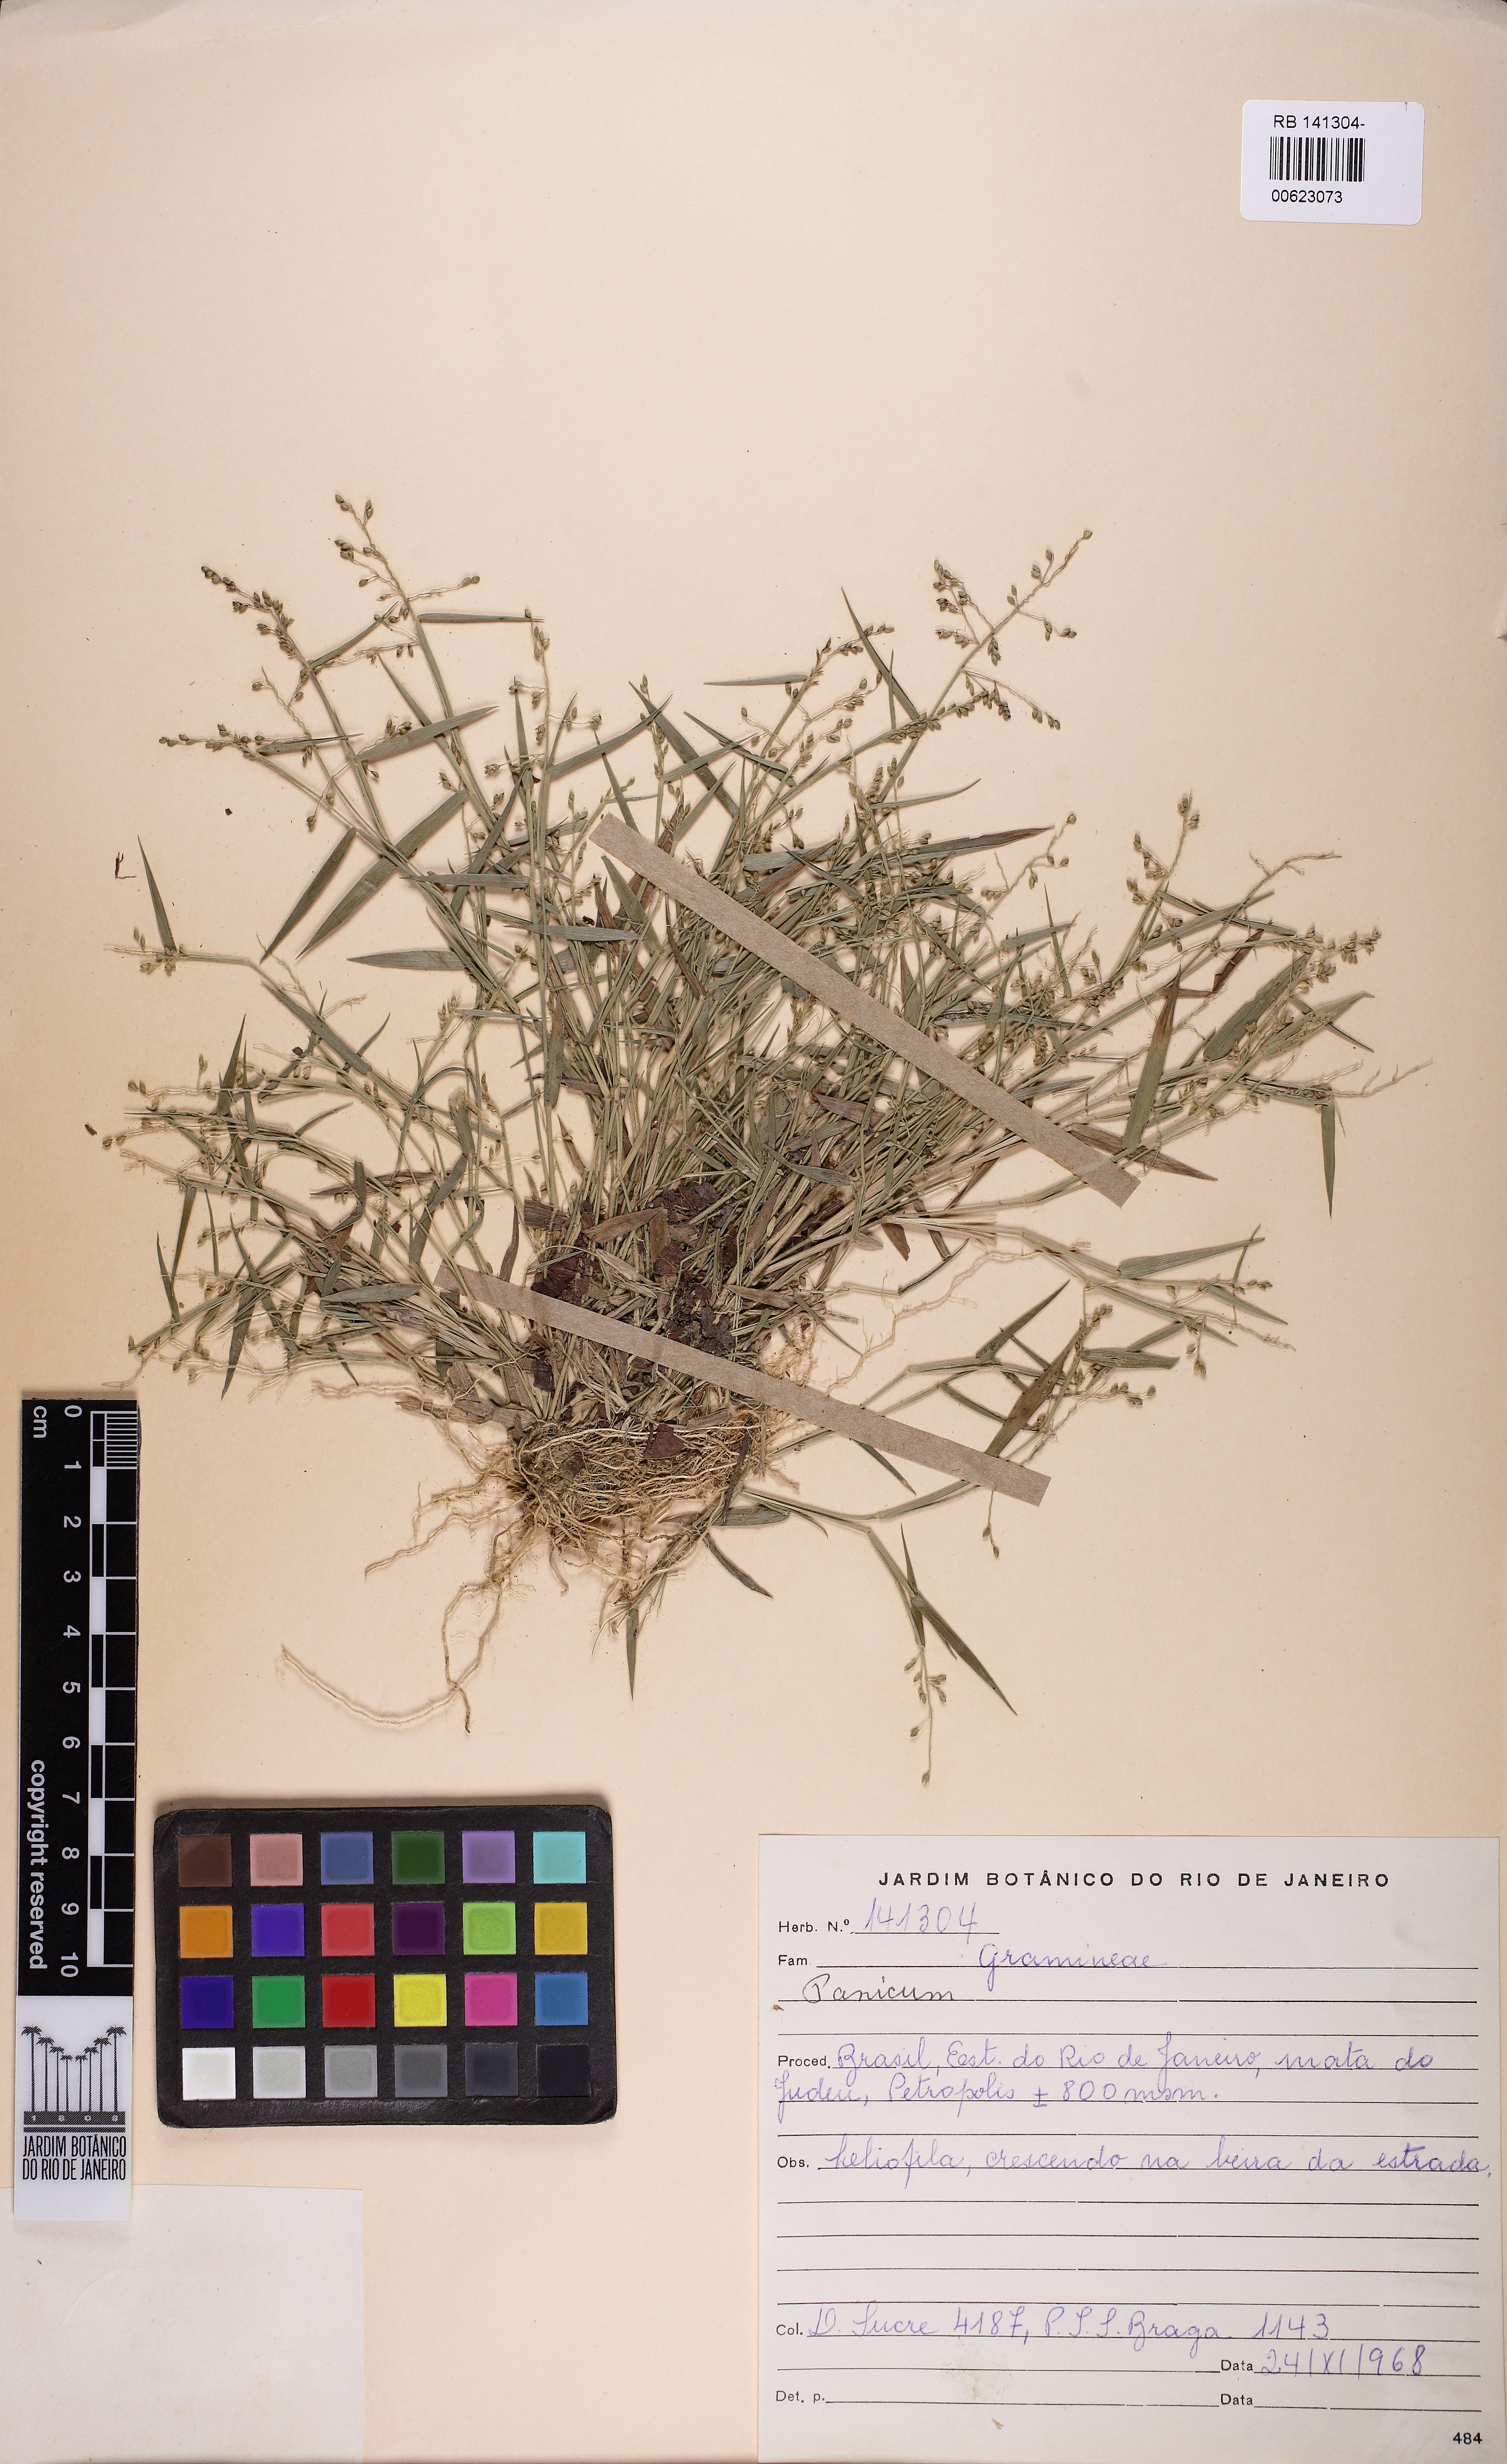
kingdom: Plantae
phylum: Tracheophyta
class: Liliopsida
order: Poales
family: Poaceae
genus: Dichanthelium
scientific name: Dichanthelium sabulorum
